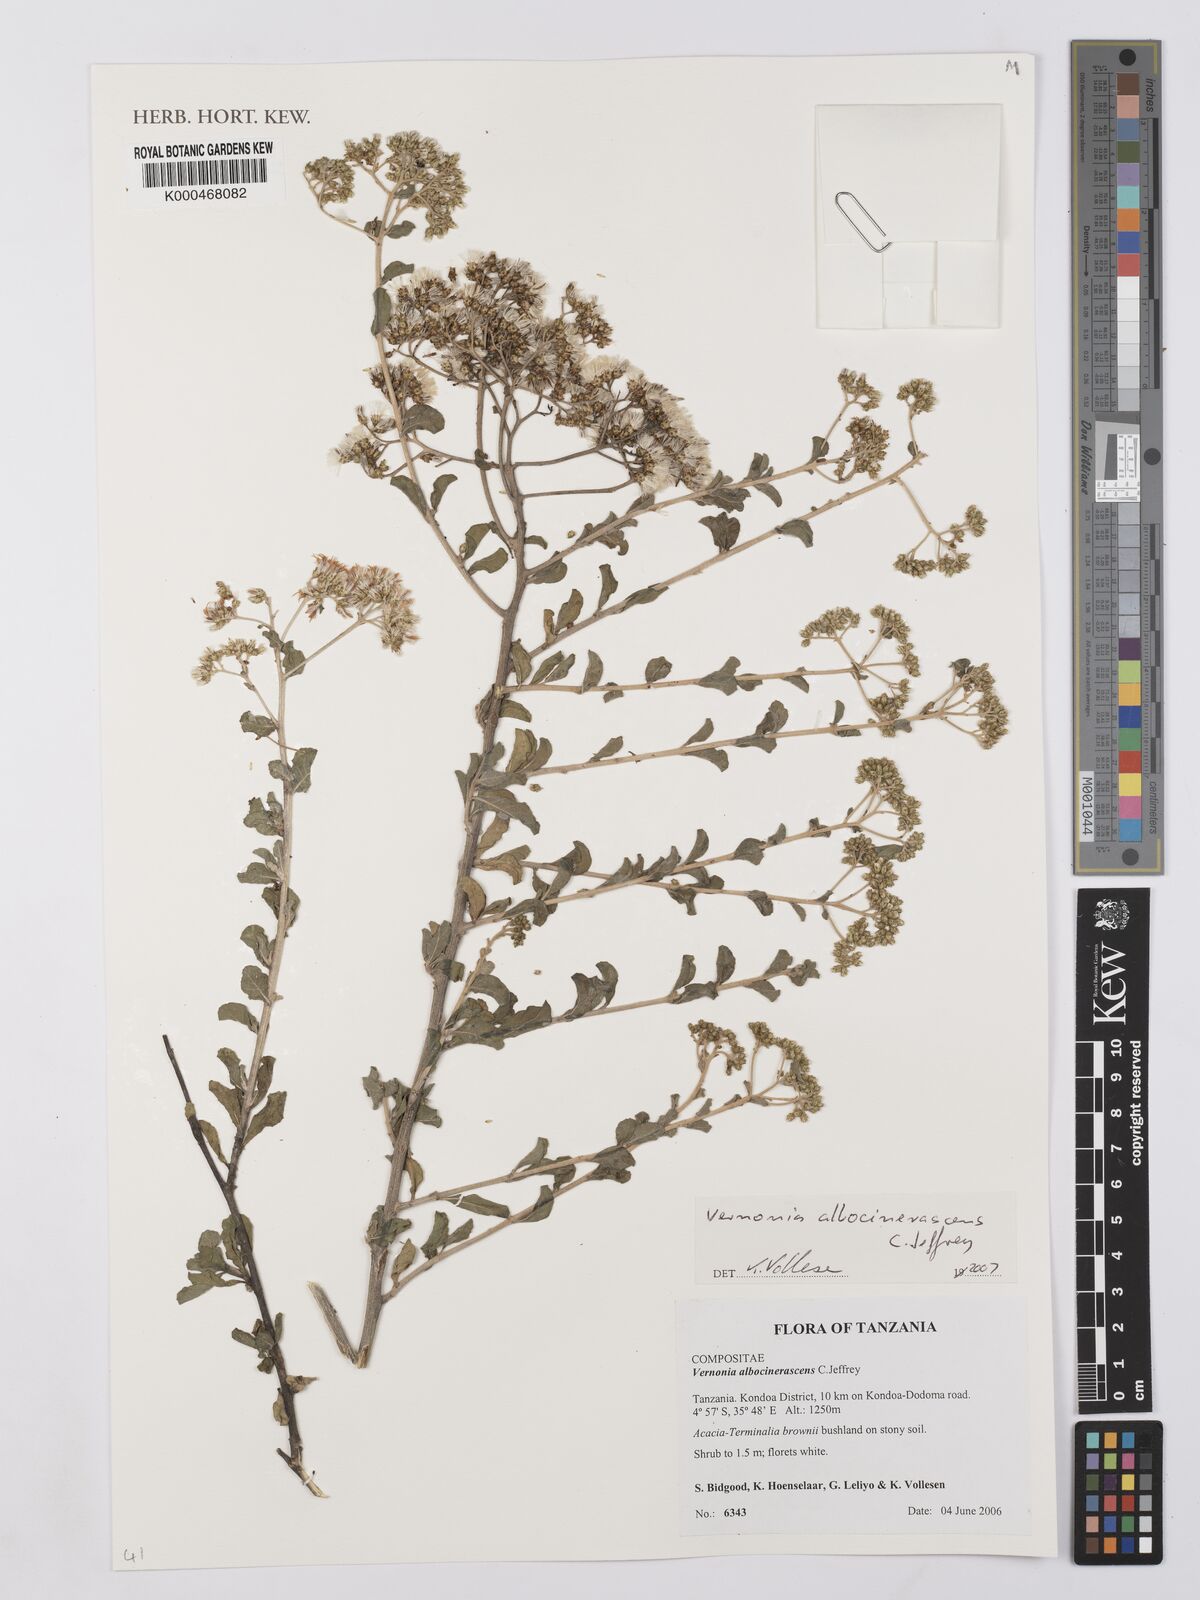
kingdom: Plantae
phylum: Tracheophyta
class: Magnoliopsida
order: Asterales
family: Asteraceae
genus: Orbivestus
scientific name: Orbivestus albocinerascens
